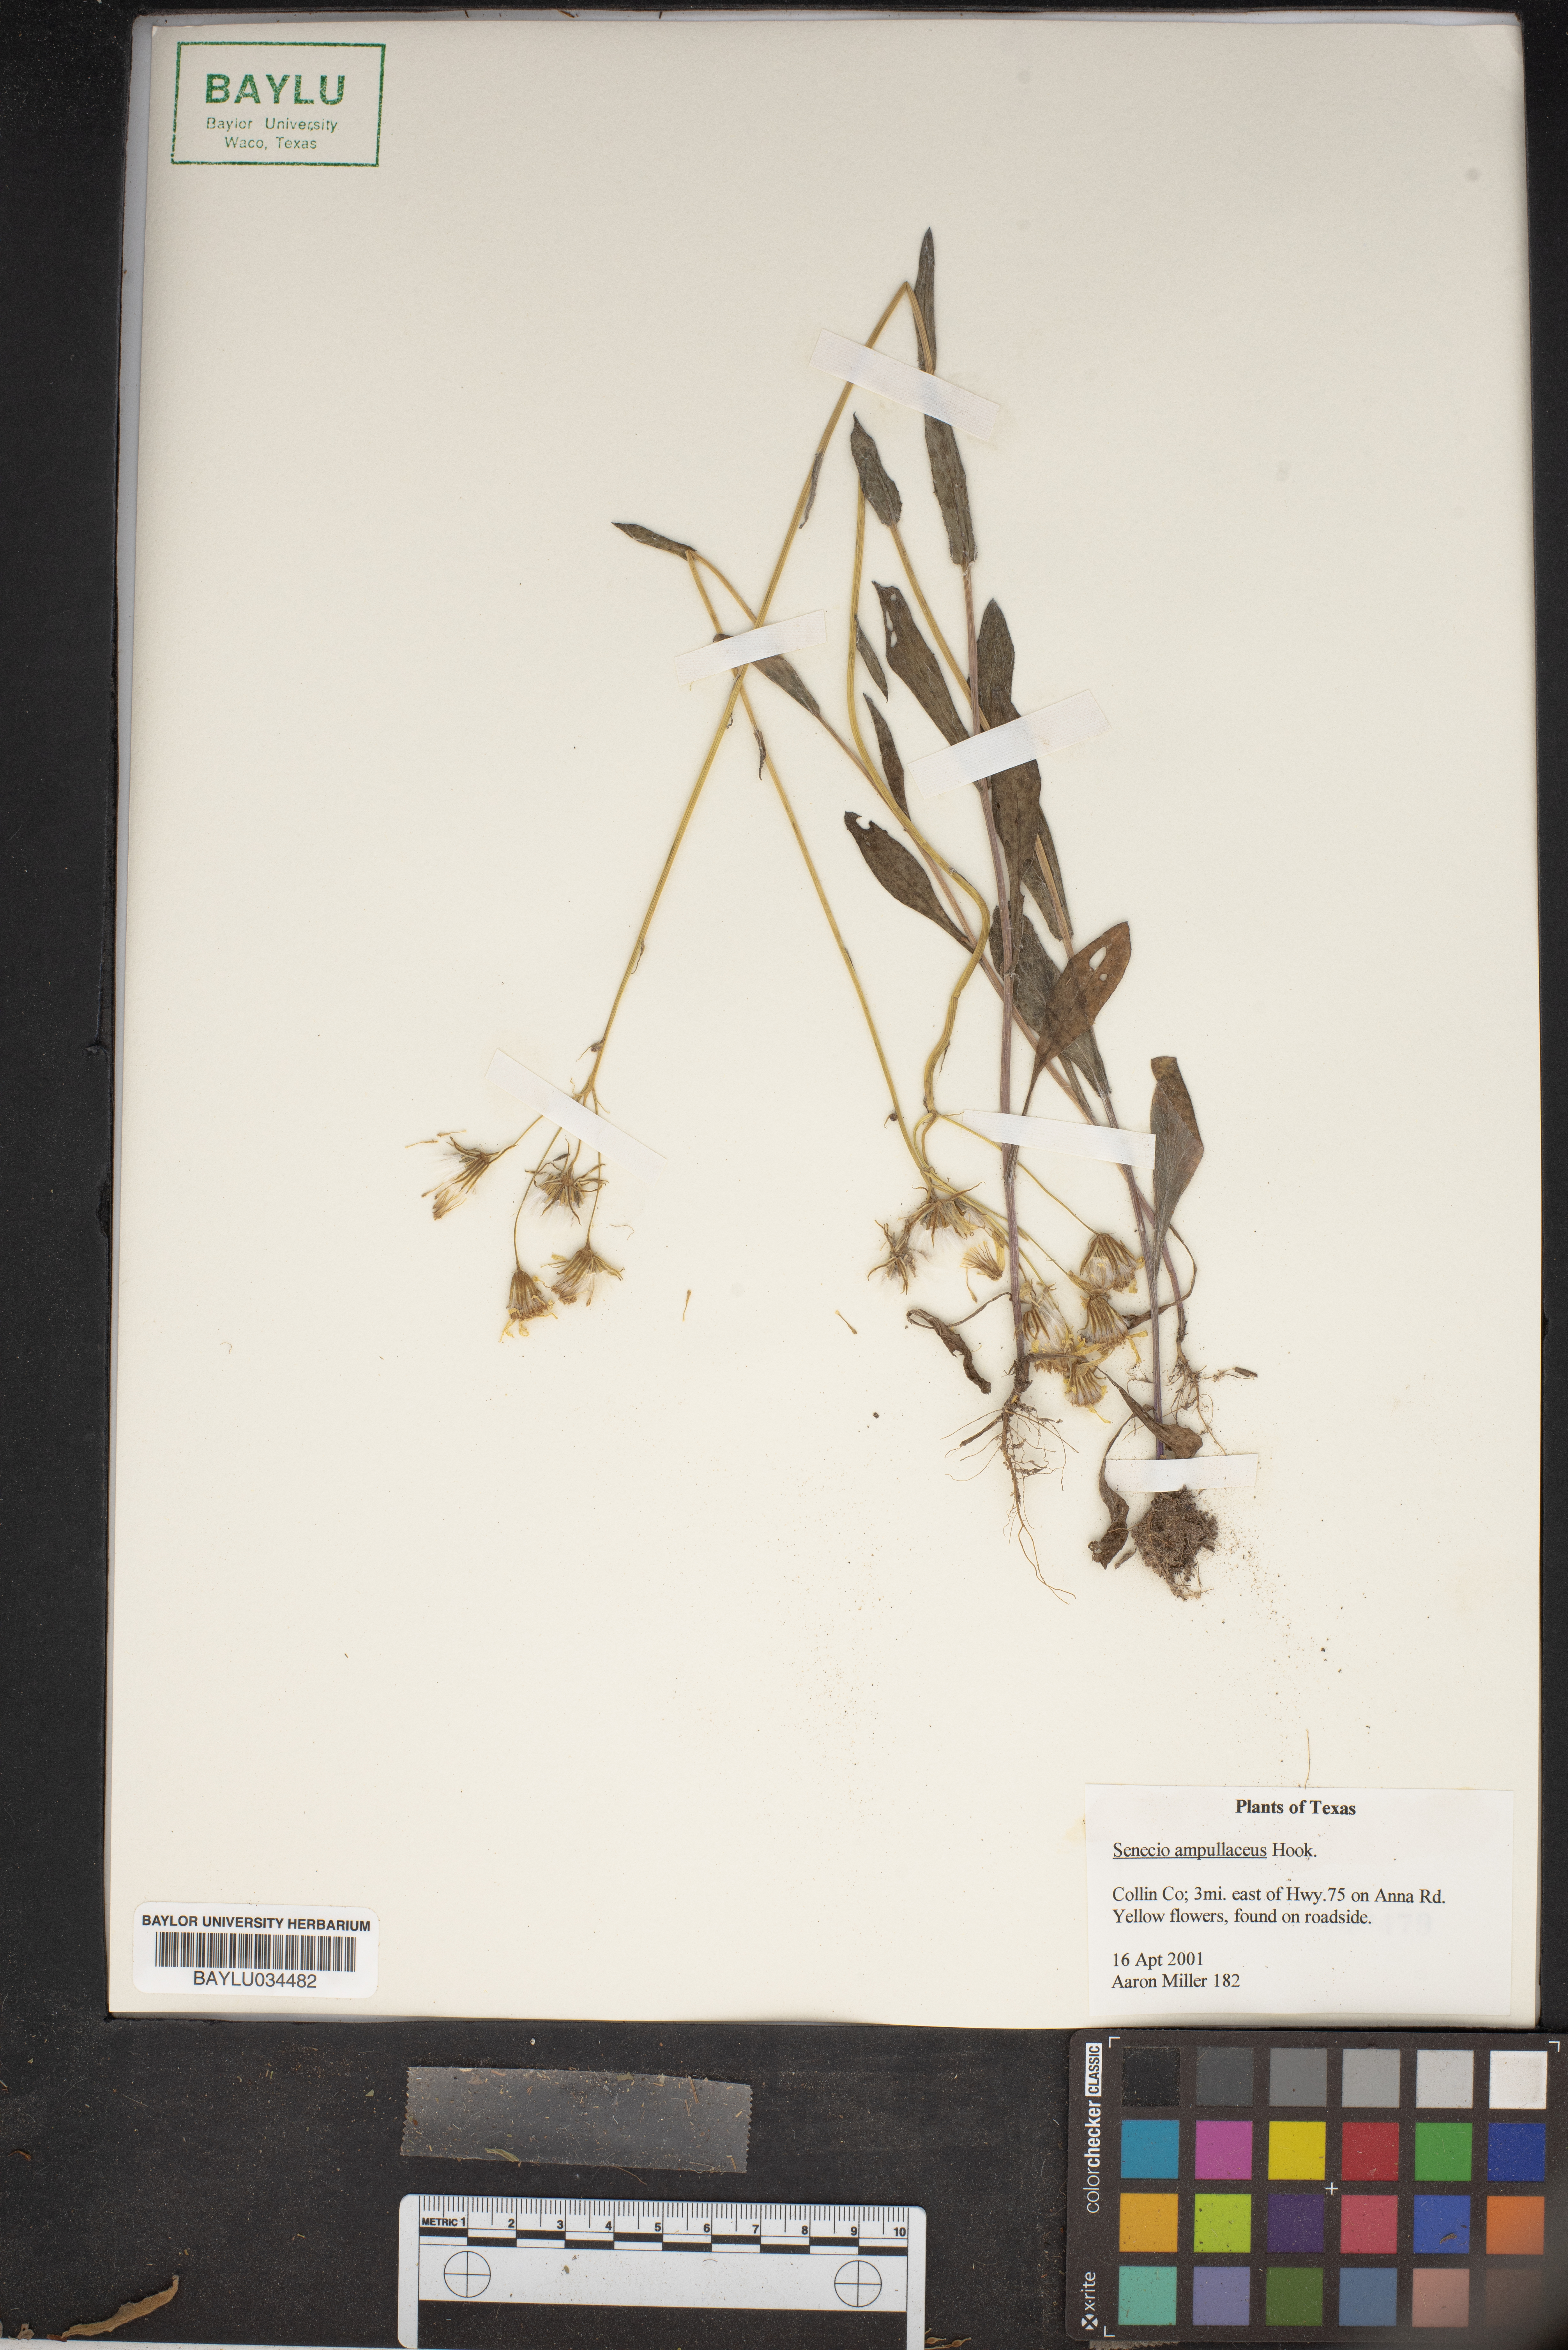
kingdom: Plantae
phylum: Tracheophyta
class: Magnoliopsida
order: Asterales
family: Asteraceae
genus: Senecio
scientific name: Senecio ampullaceus
